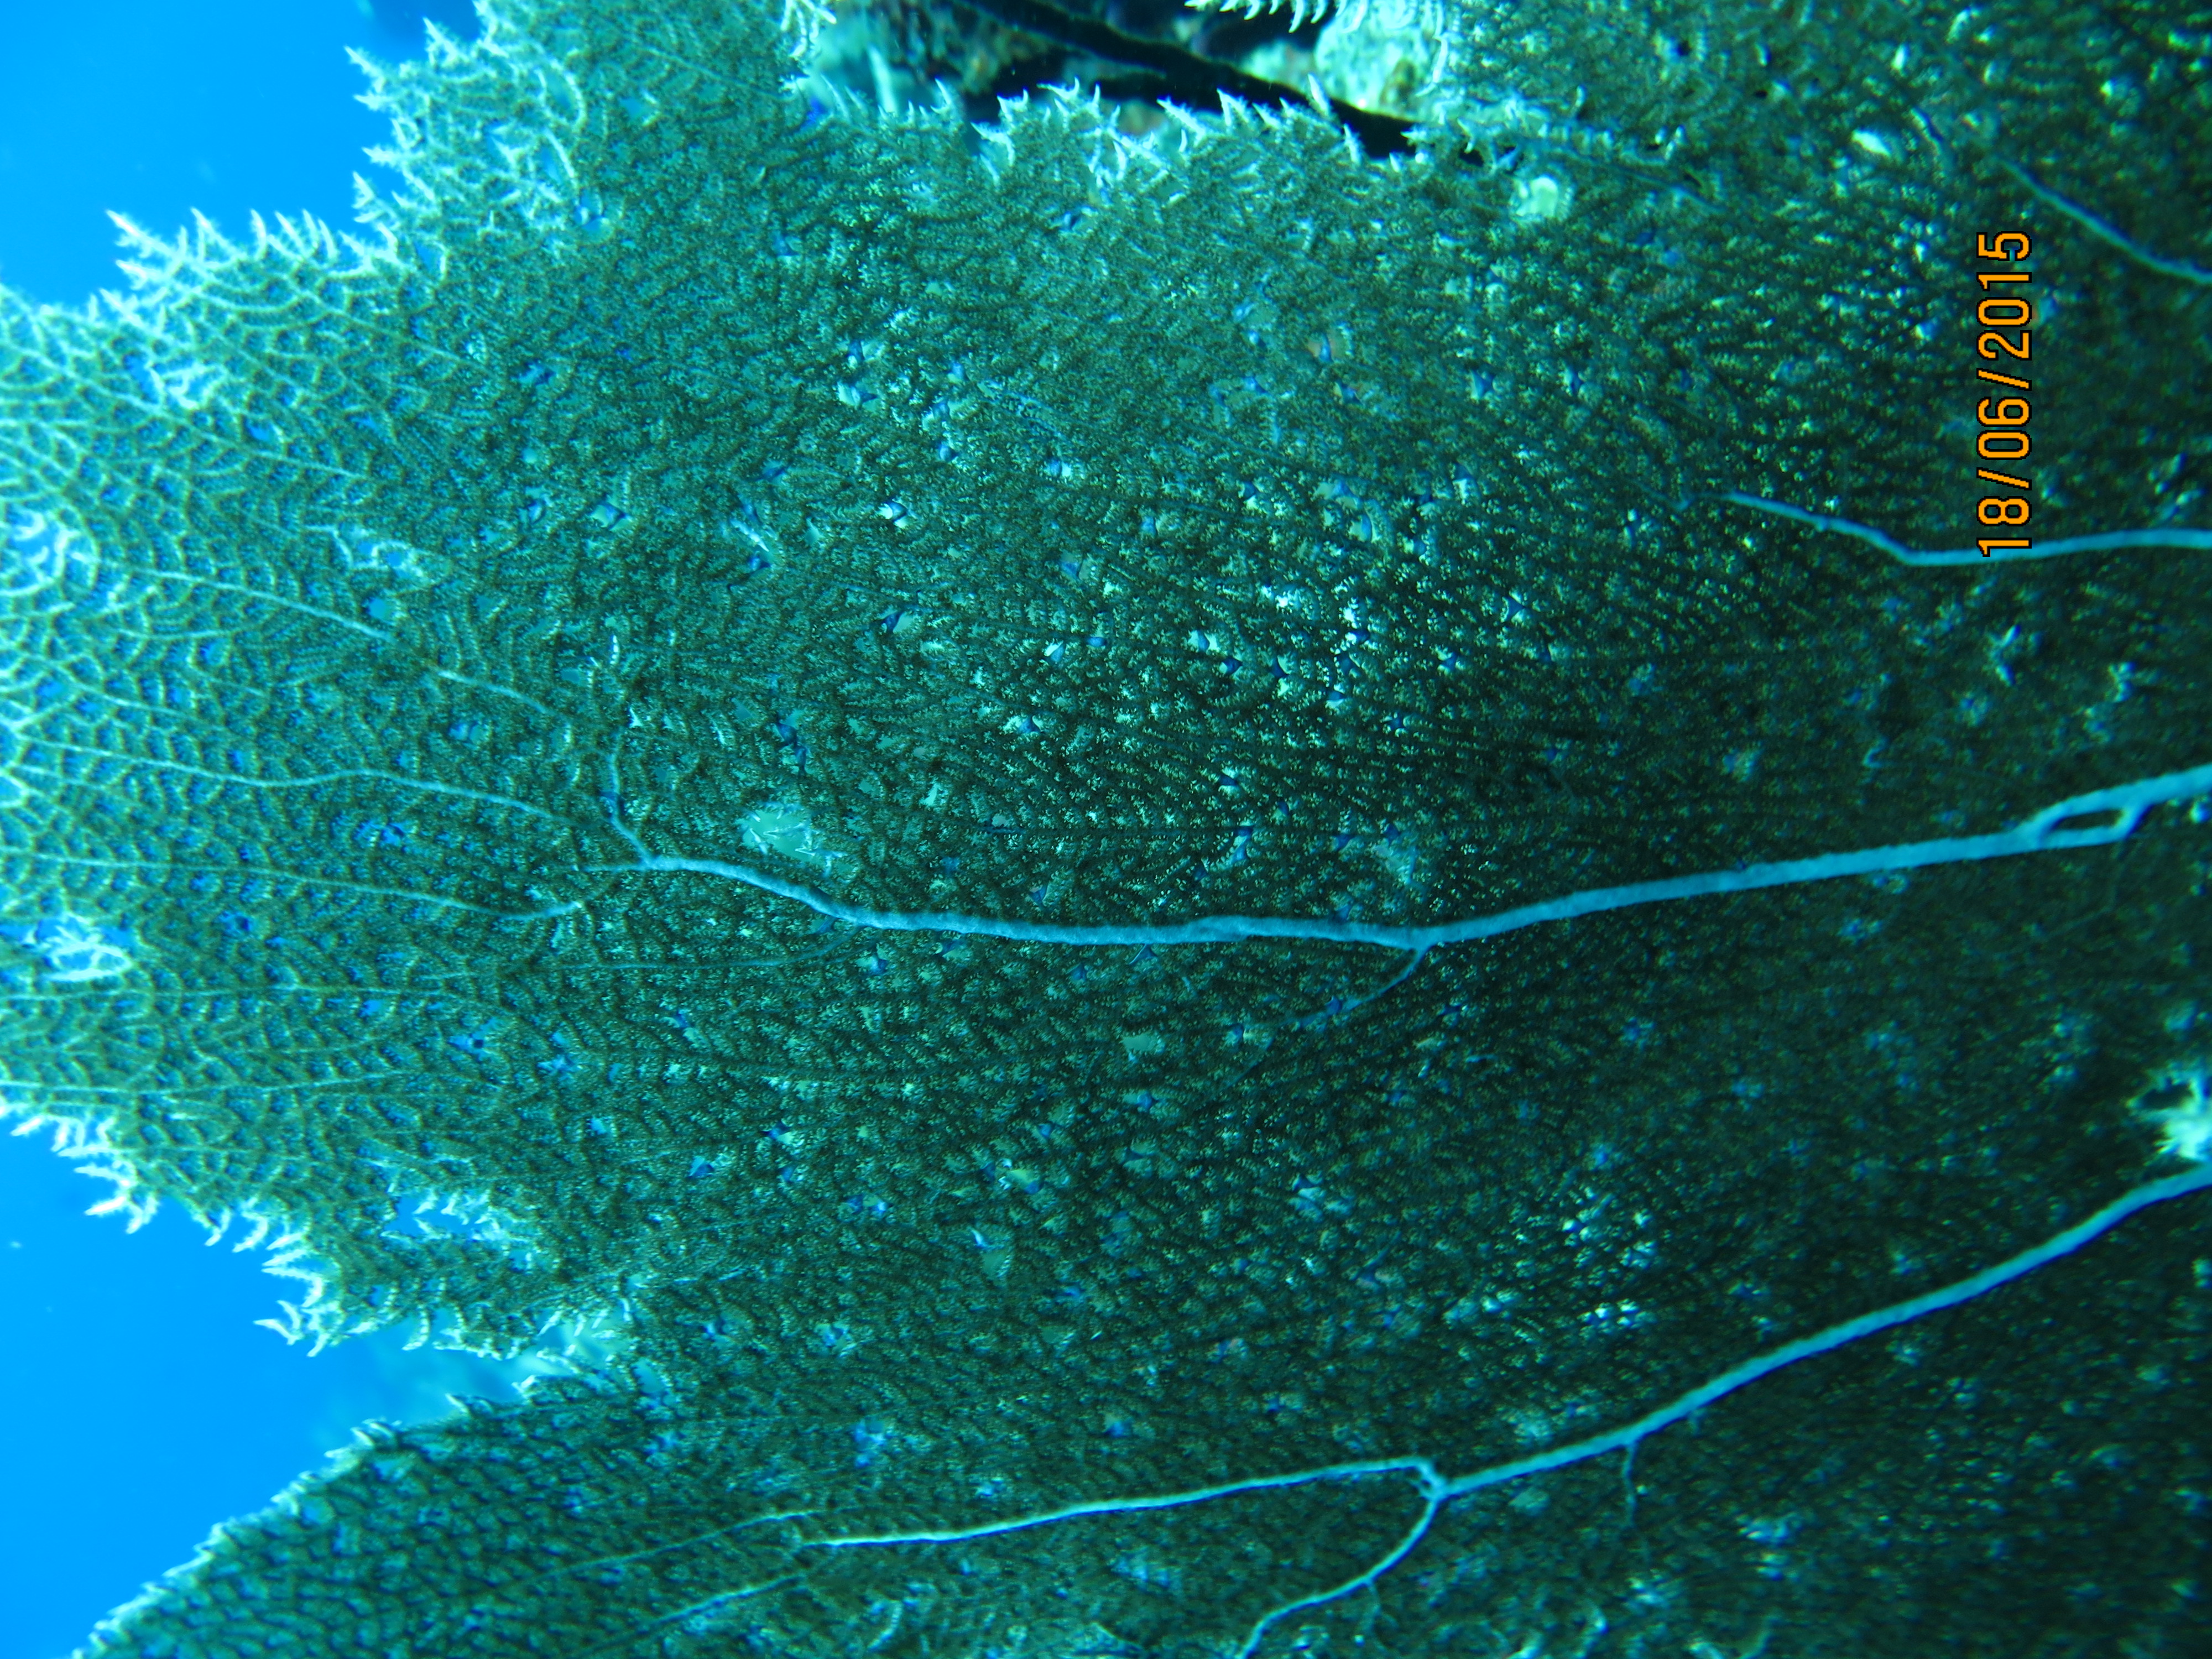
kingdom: Animalia
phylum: Cnidaria
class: Anthozoa
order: Malacalcyonacea
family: Gorgoniidae
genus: Gorgonia
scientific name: Gorgonia ventalina
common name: Common sea fan
